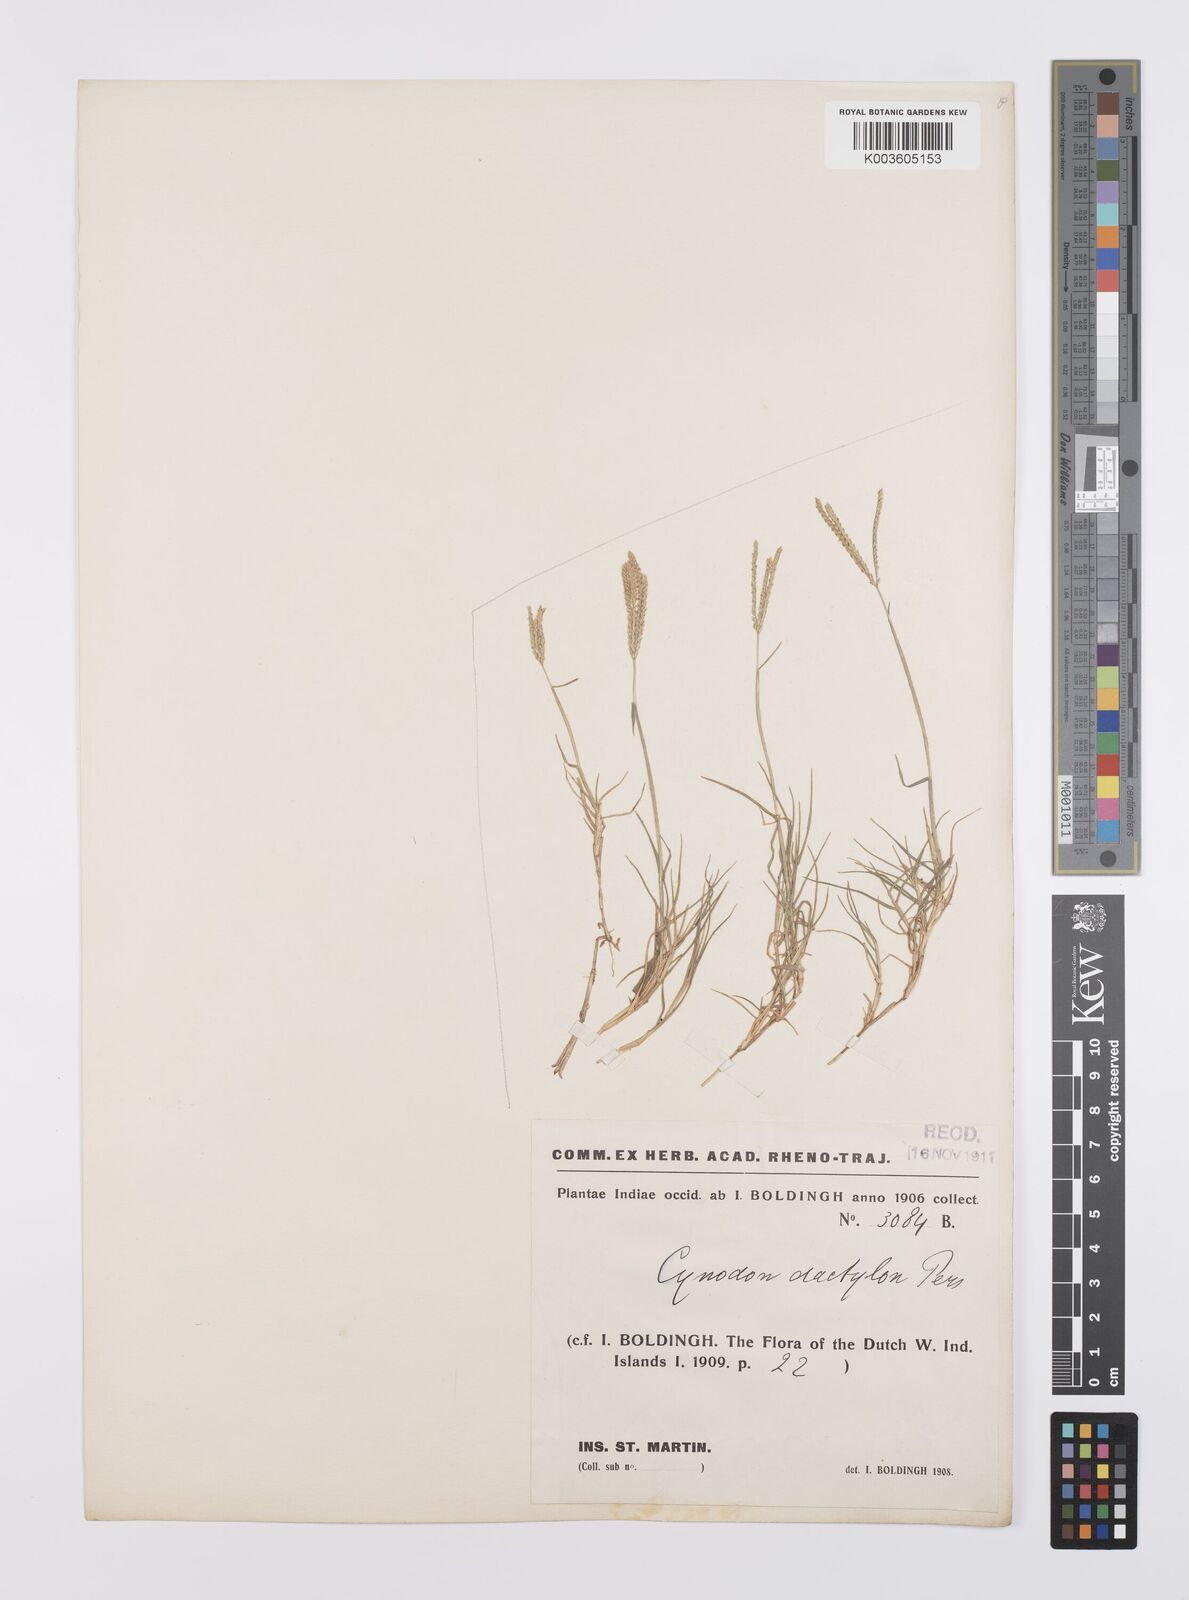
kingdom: Plantae
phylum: Tracheophyta
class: Liliopsida
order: Poales
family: Poaceae
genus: Cynodon
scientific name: Cynodon dactylon
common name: Bermuda grass
